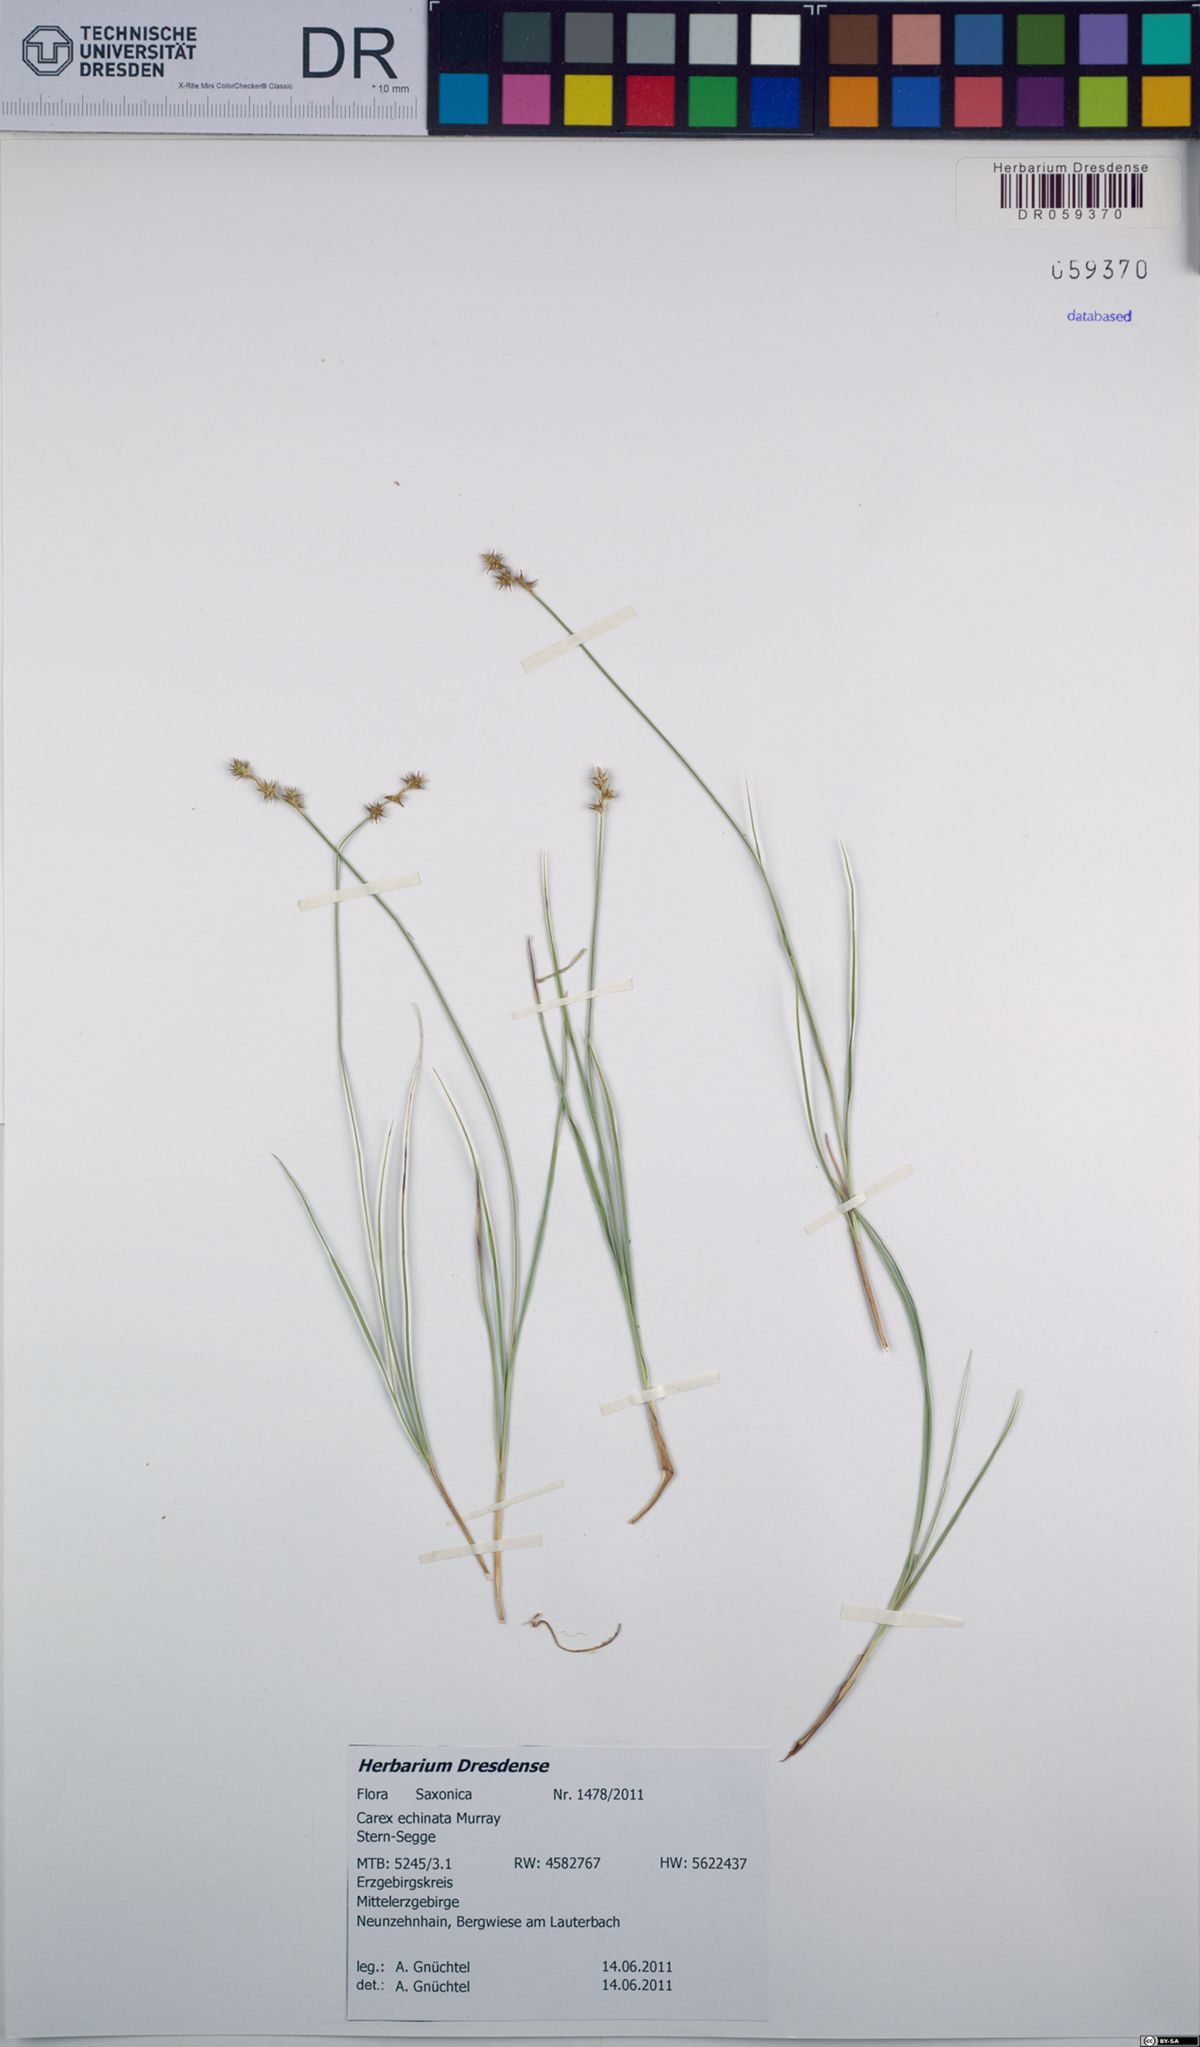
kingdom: Plantae
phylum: Tracheophyta
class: Liliopsida
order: Poales
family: Cyperaceae
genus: Carex
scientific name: Carex echinata
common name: Star sedge
